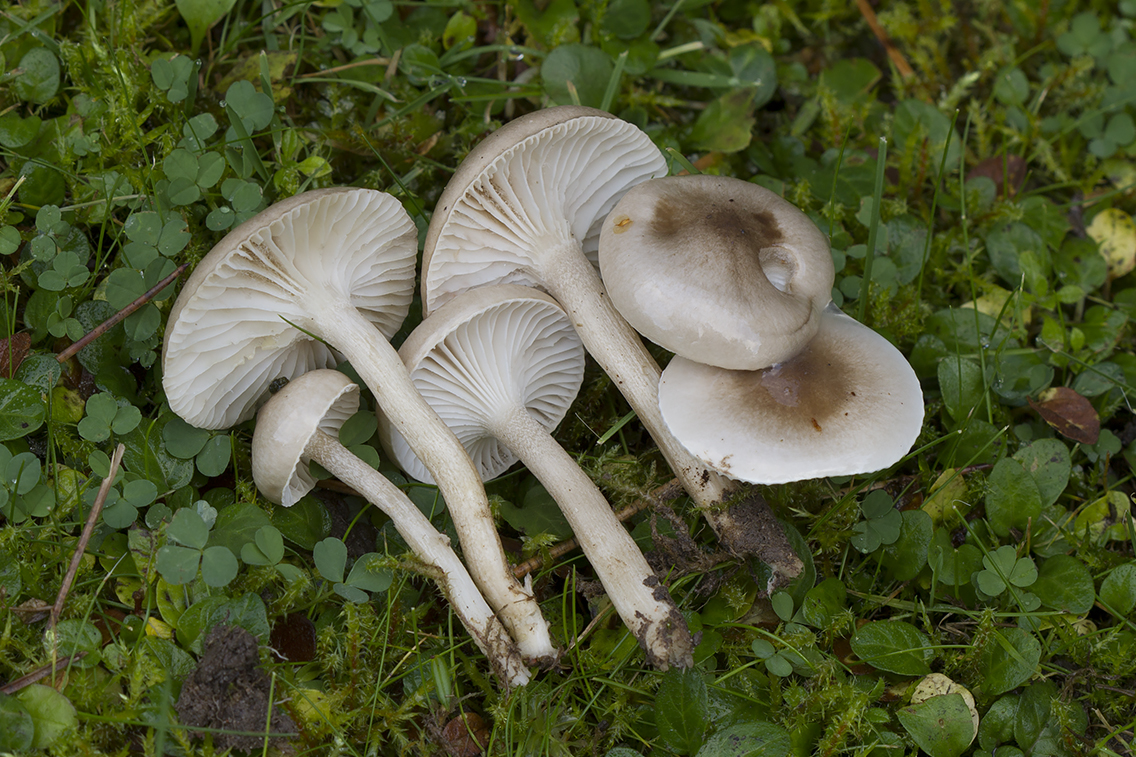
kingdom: Fungi
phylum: Basidiomycota
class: Agaricomycetes
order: Agaricales
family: Hygrophoraceae
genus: Hygrophorus
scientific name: Hygrophorus suaveolens
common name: parfumeret sneglehat
